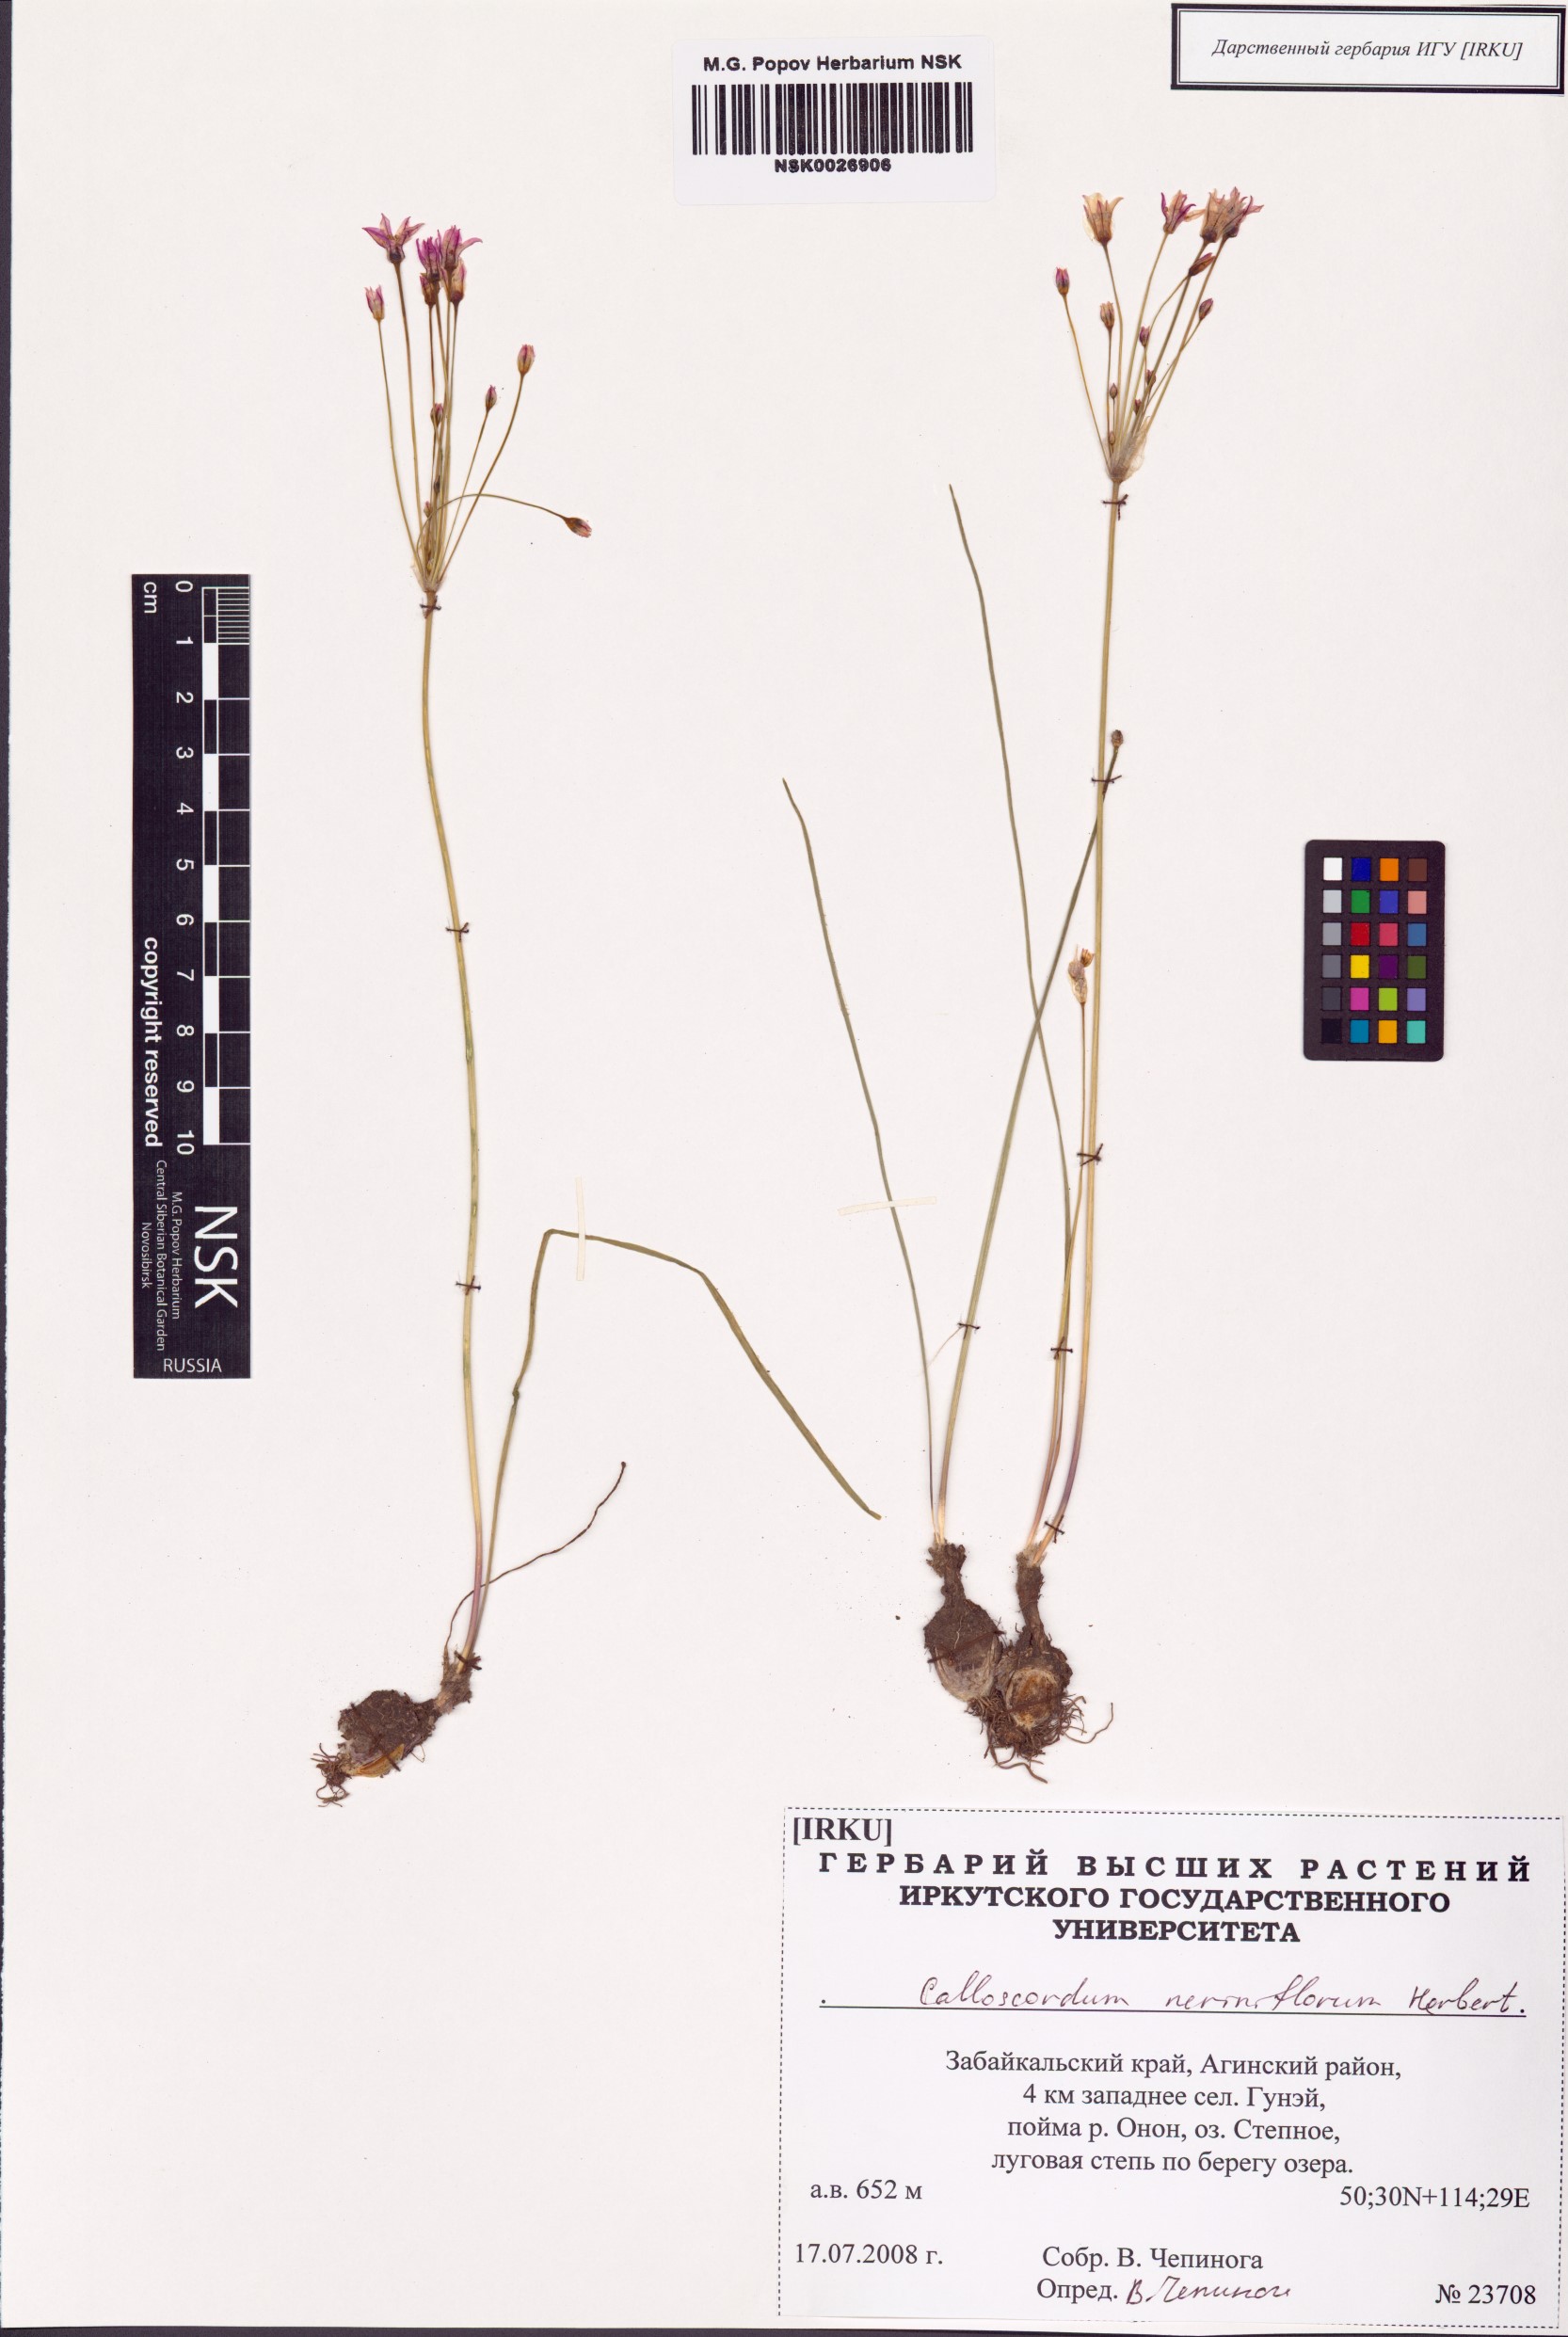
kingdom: Plantae
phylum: Tracheophyta
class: Liliopsida
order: Asparagales
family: Amaryllidaceae
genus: Allium
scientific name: Allium neriniflorum
